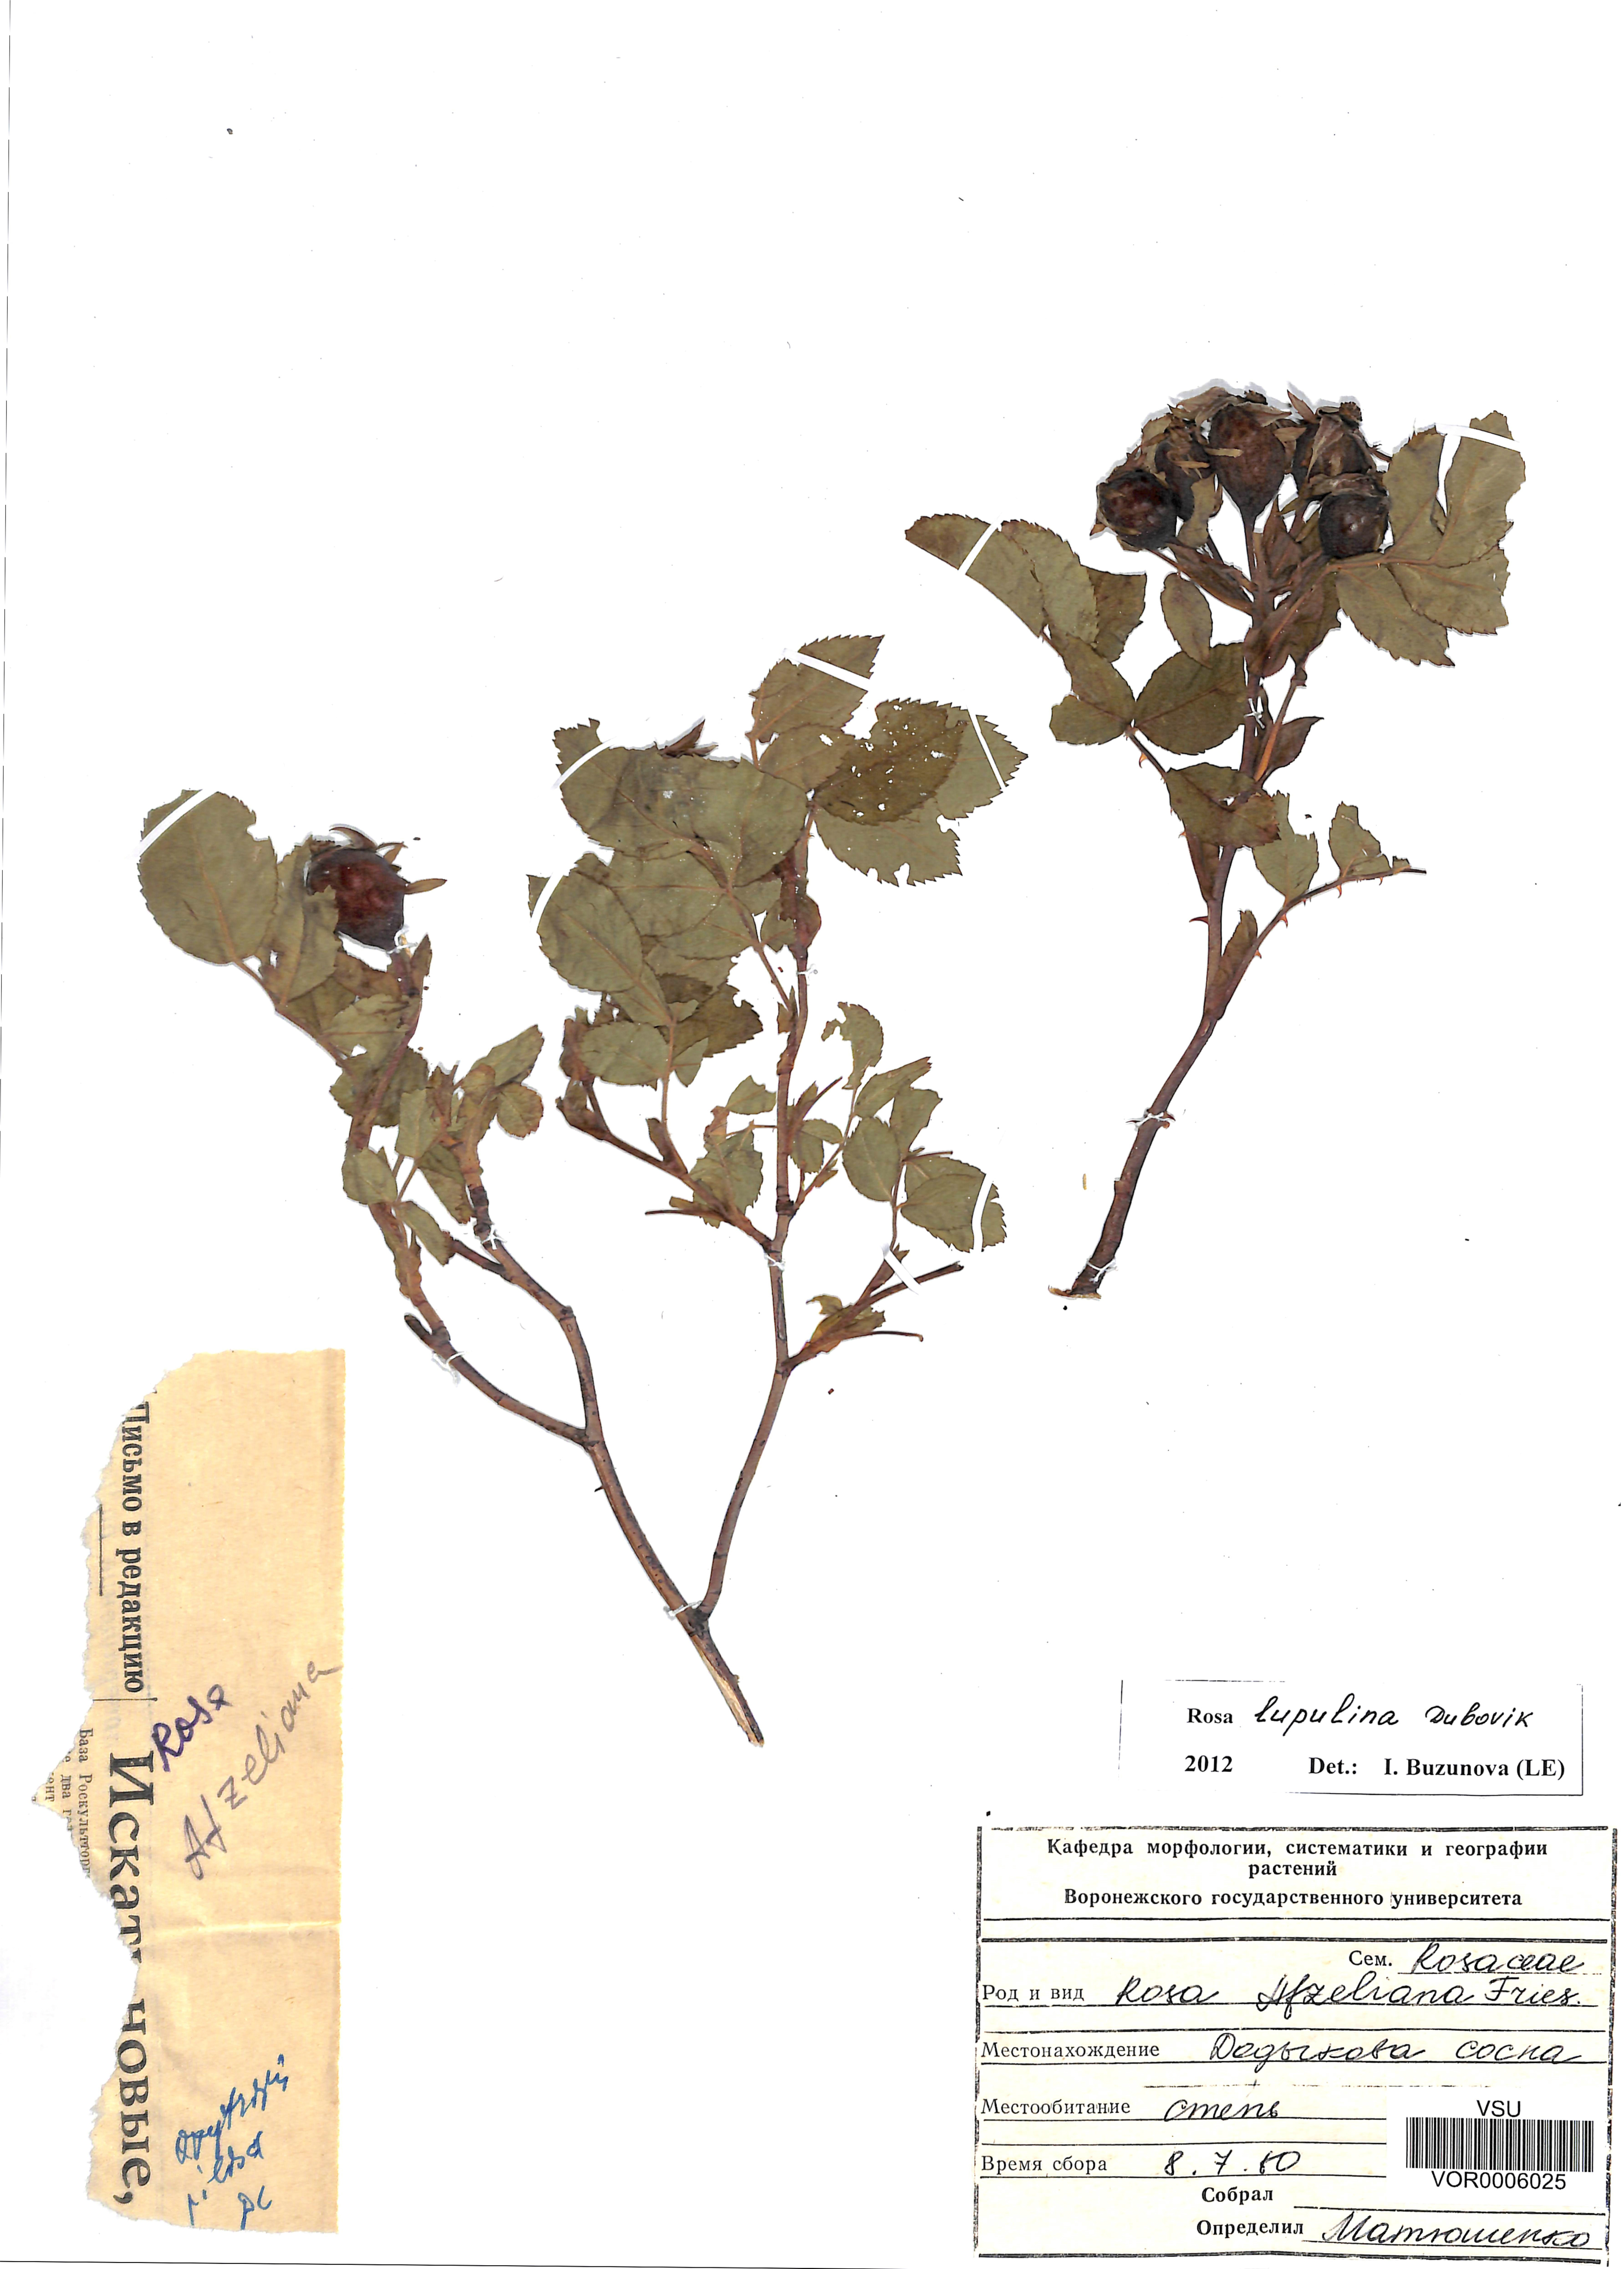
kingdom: Plantae
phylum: Tracheophyta
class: Magnoliopsida
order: Rosales
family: Rosaceae
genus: Rosa
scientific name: Rosa
